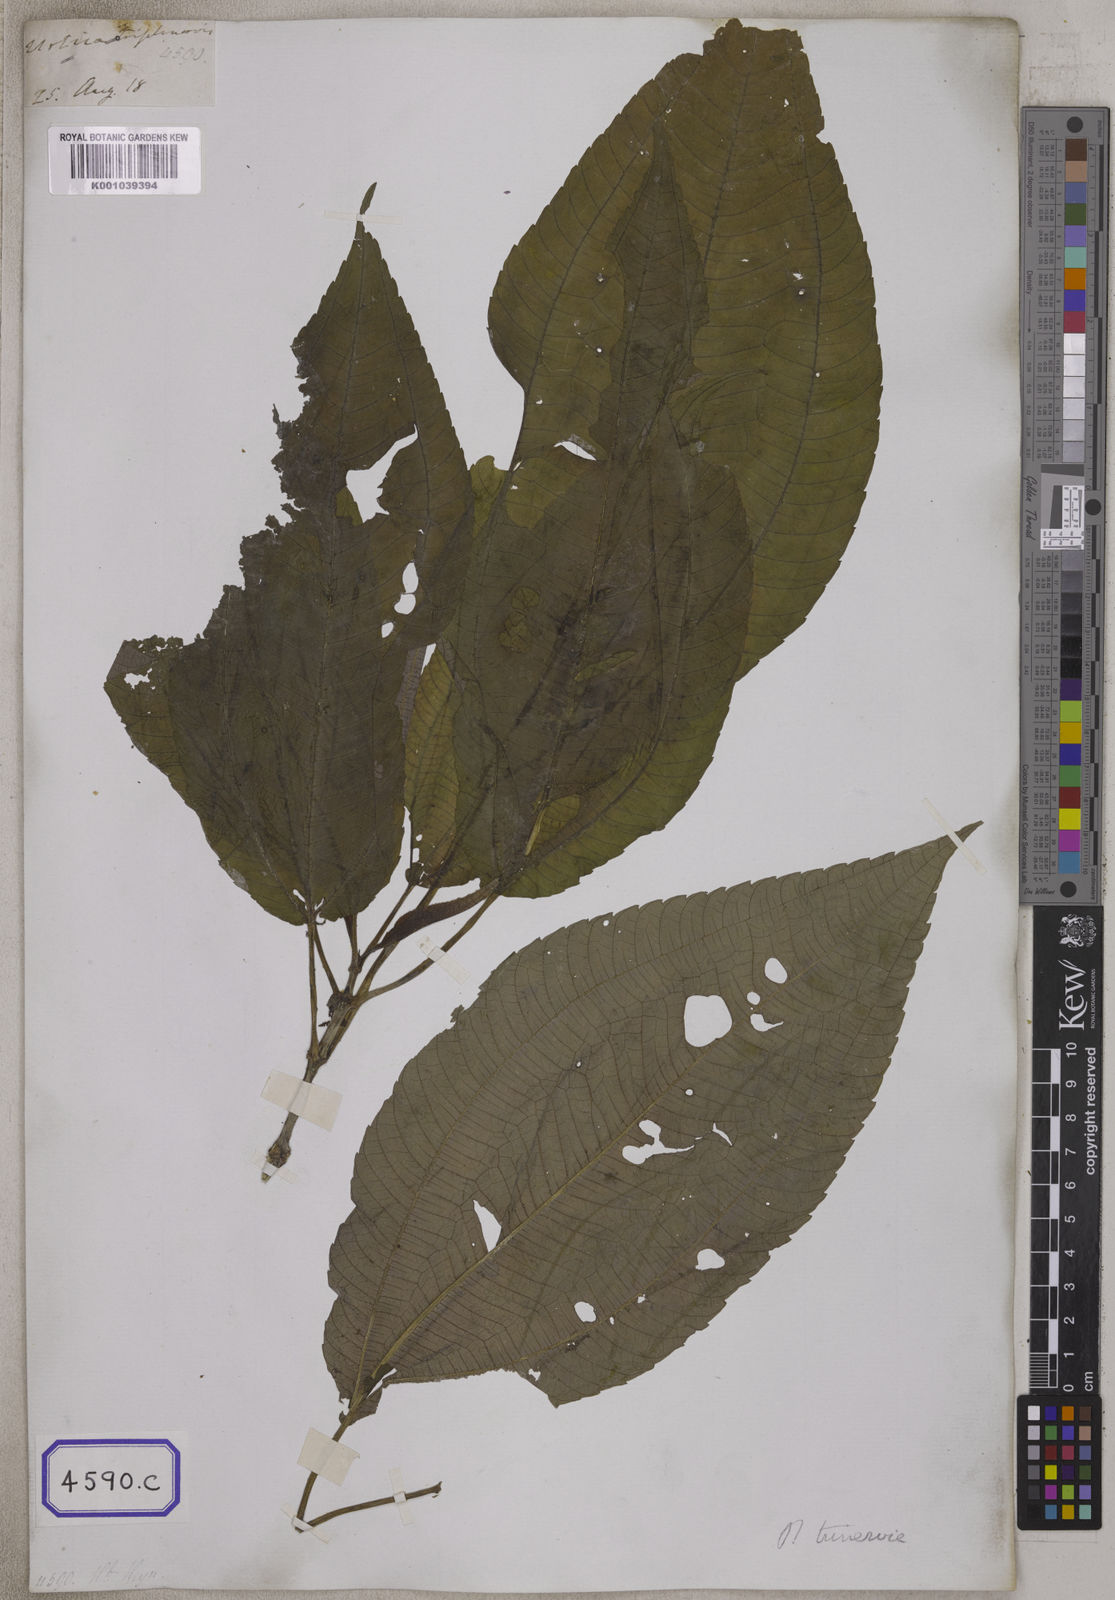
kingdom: Plantae
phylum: Tracheophyta
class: Magnoliopsida
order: Rosales
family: Urticaceae
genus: Boehmeria
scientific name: Boehmeria hamiltoniana
